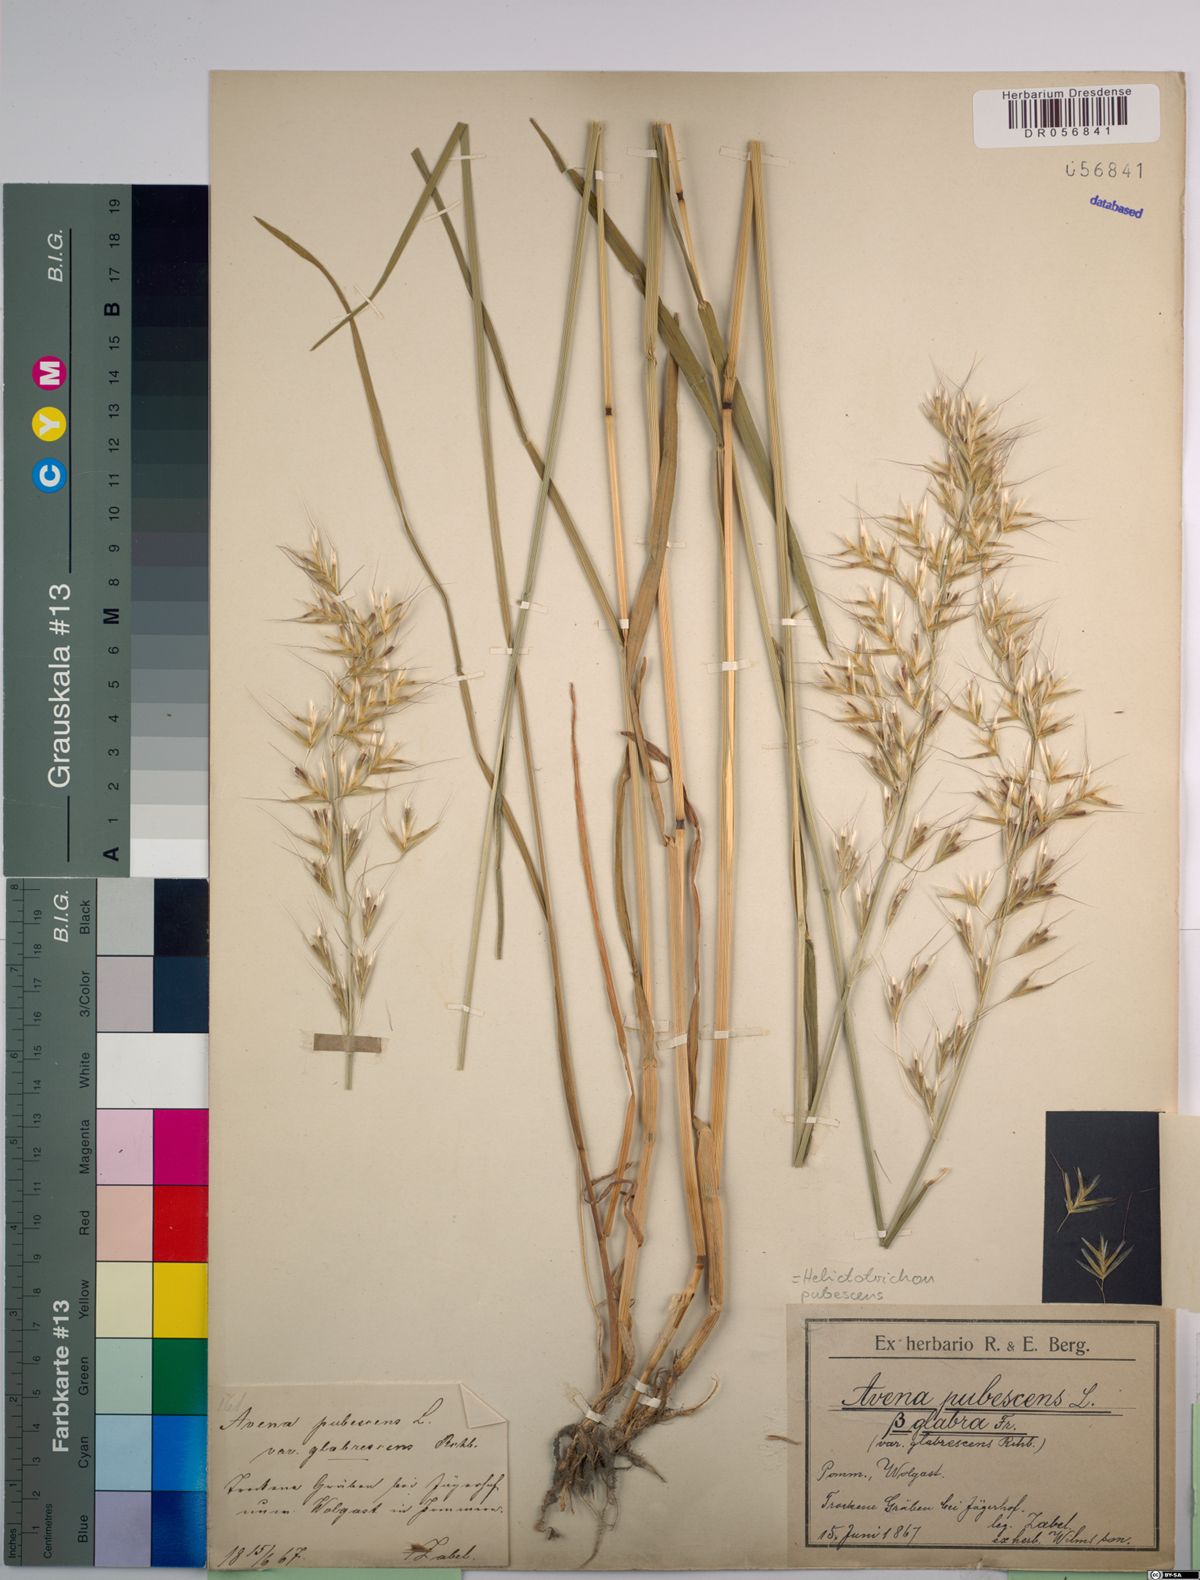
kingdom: Plantae
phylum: Tracheophyta
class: Liliopsida
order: Poales
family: Poaceae
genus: Avenula
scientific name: Avenula pubescens
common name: Downy alpine oatgrass
